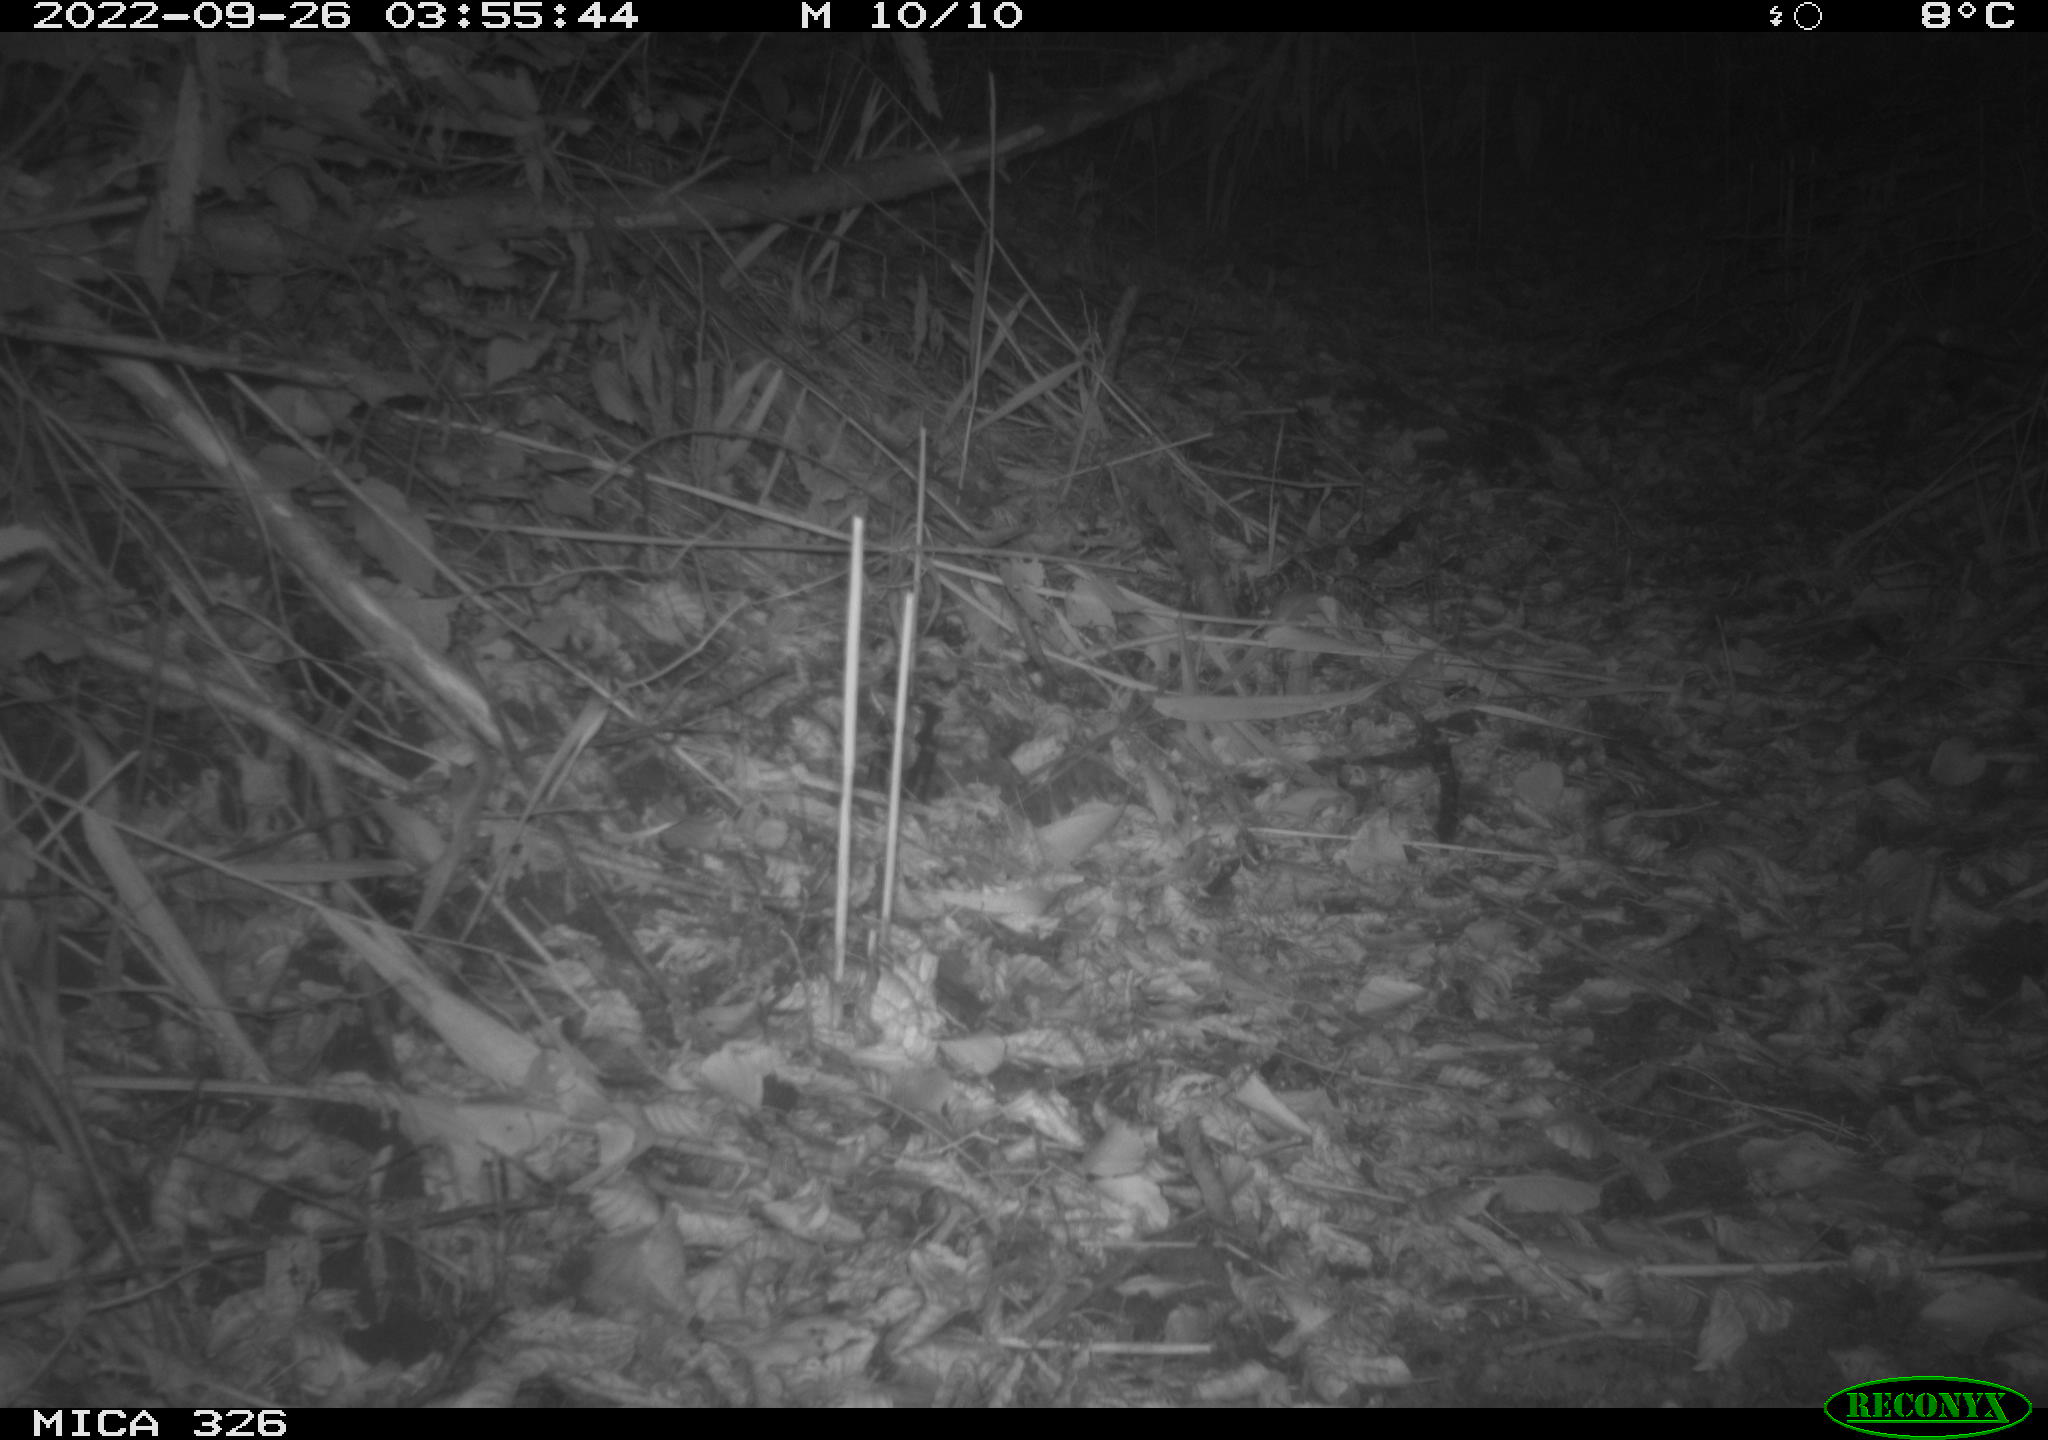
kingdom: Animalia
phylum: Chordata
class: Mammalia
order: Rodentia
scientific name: Rodentia
